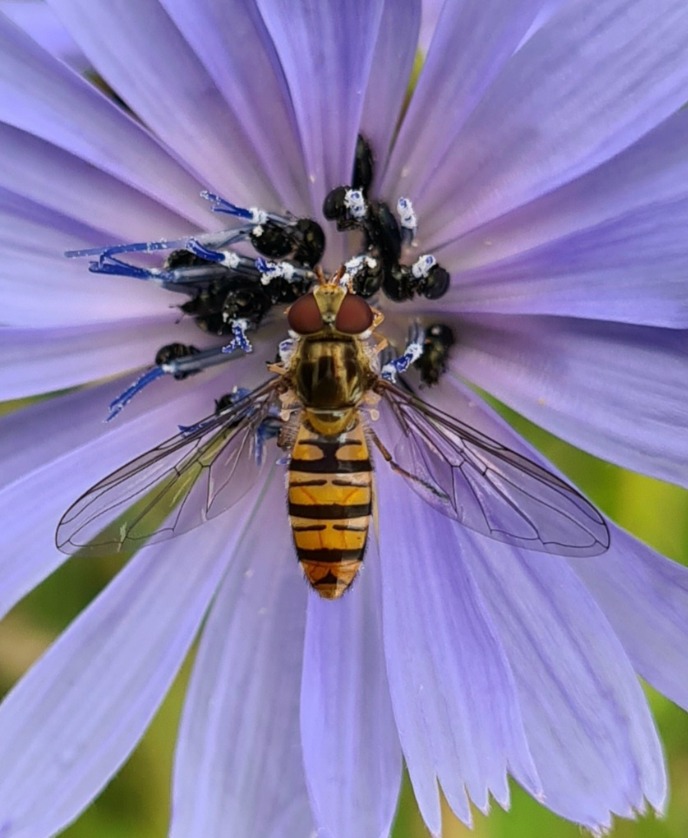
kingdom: Animalia
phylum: Arthropoda
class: Insecta
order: Diptera
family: Syrphidae
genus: Episyrphus
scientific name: Episyrphus balteatus
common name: Dobbeltbåndet svirreflue
